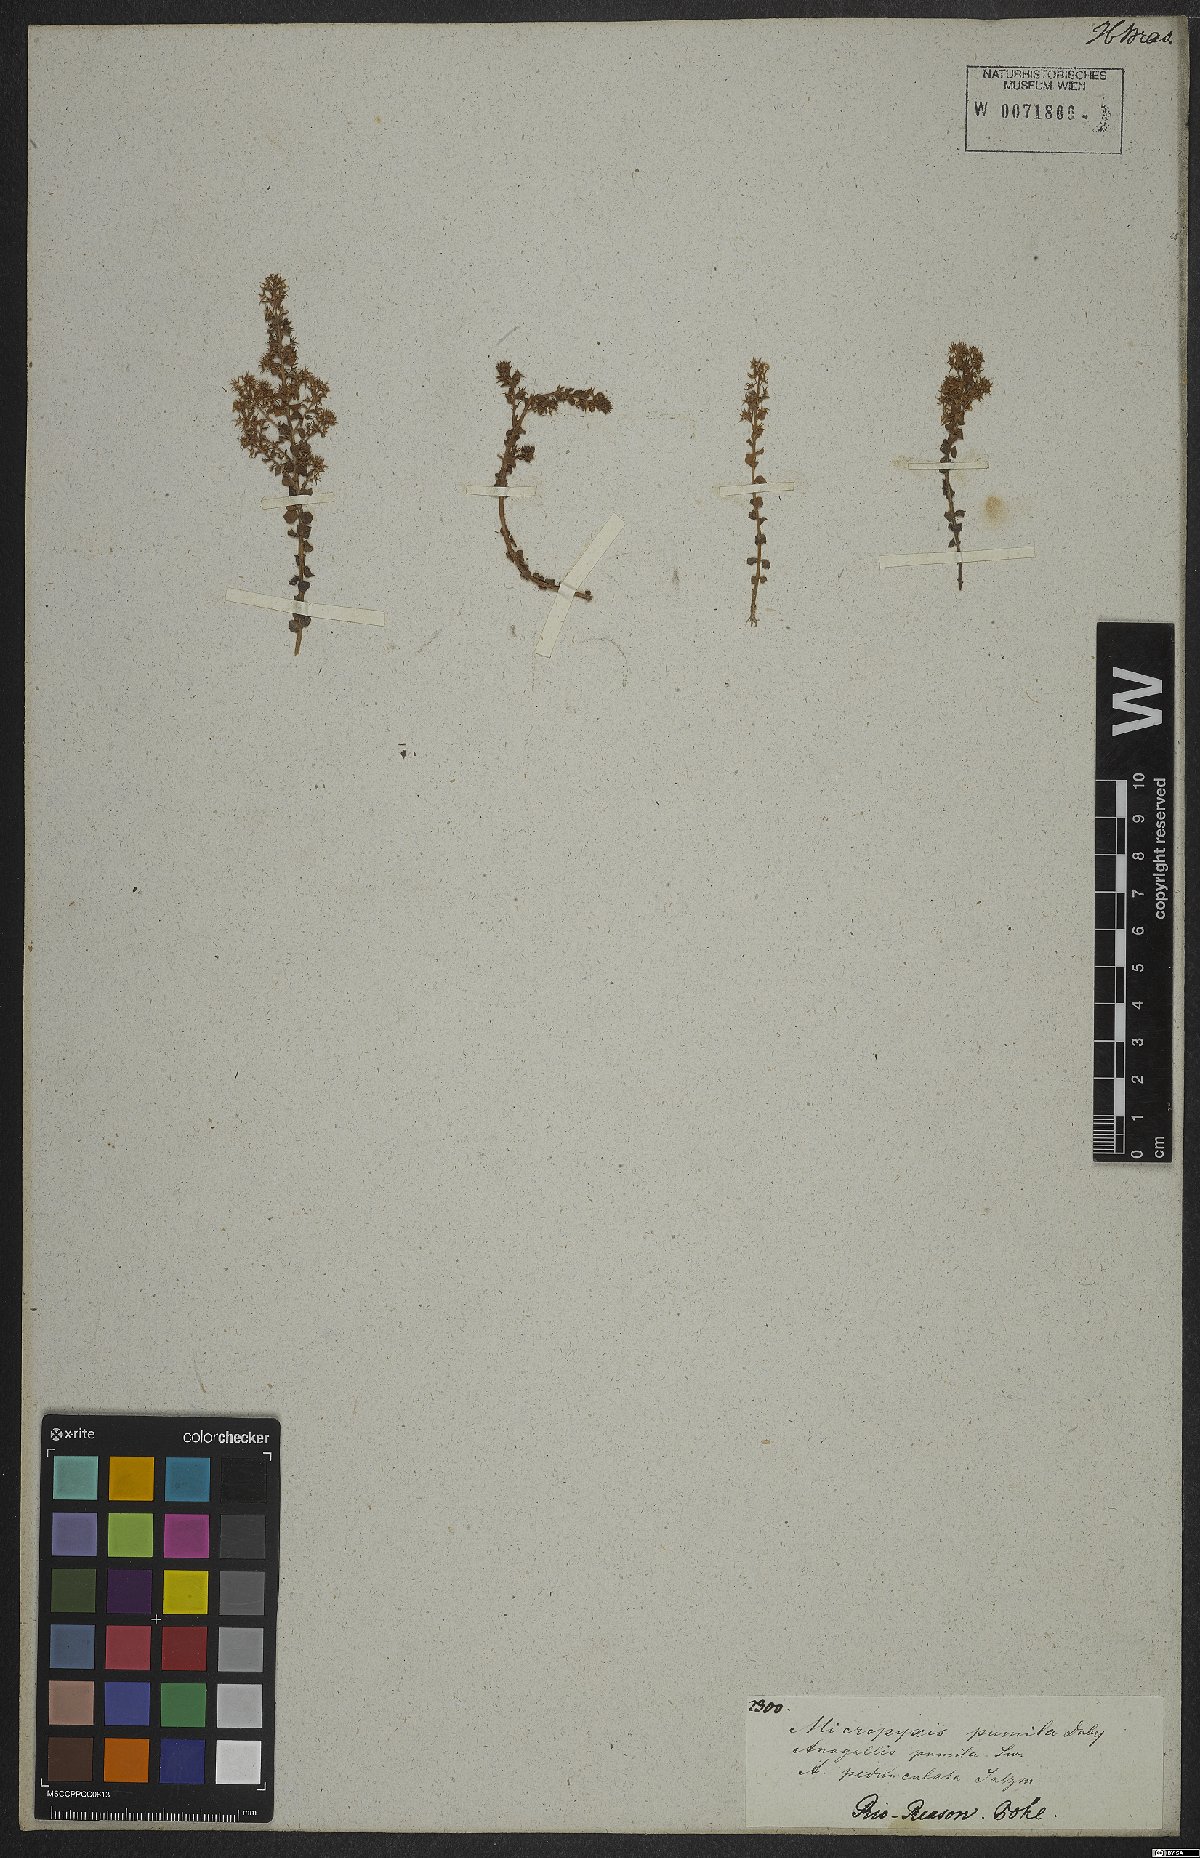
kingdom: Plantae
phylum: Tracheophyta
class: Magnoliopsida
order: Ericales
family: Primulaceae
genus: Lysimachia
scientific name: Lysimachia ovalis
